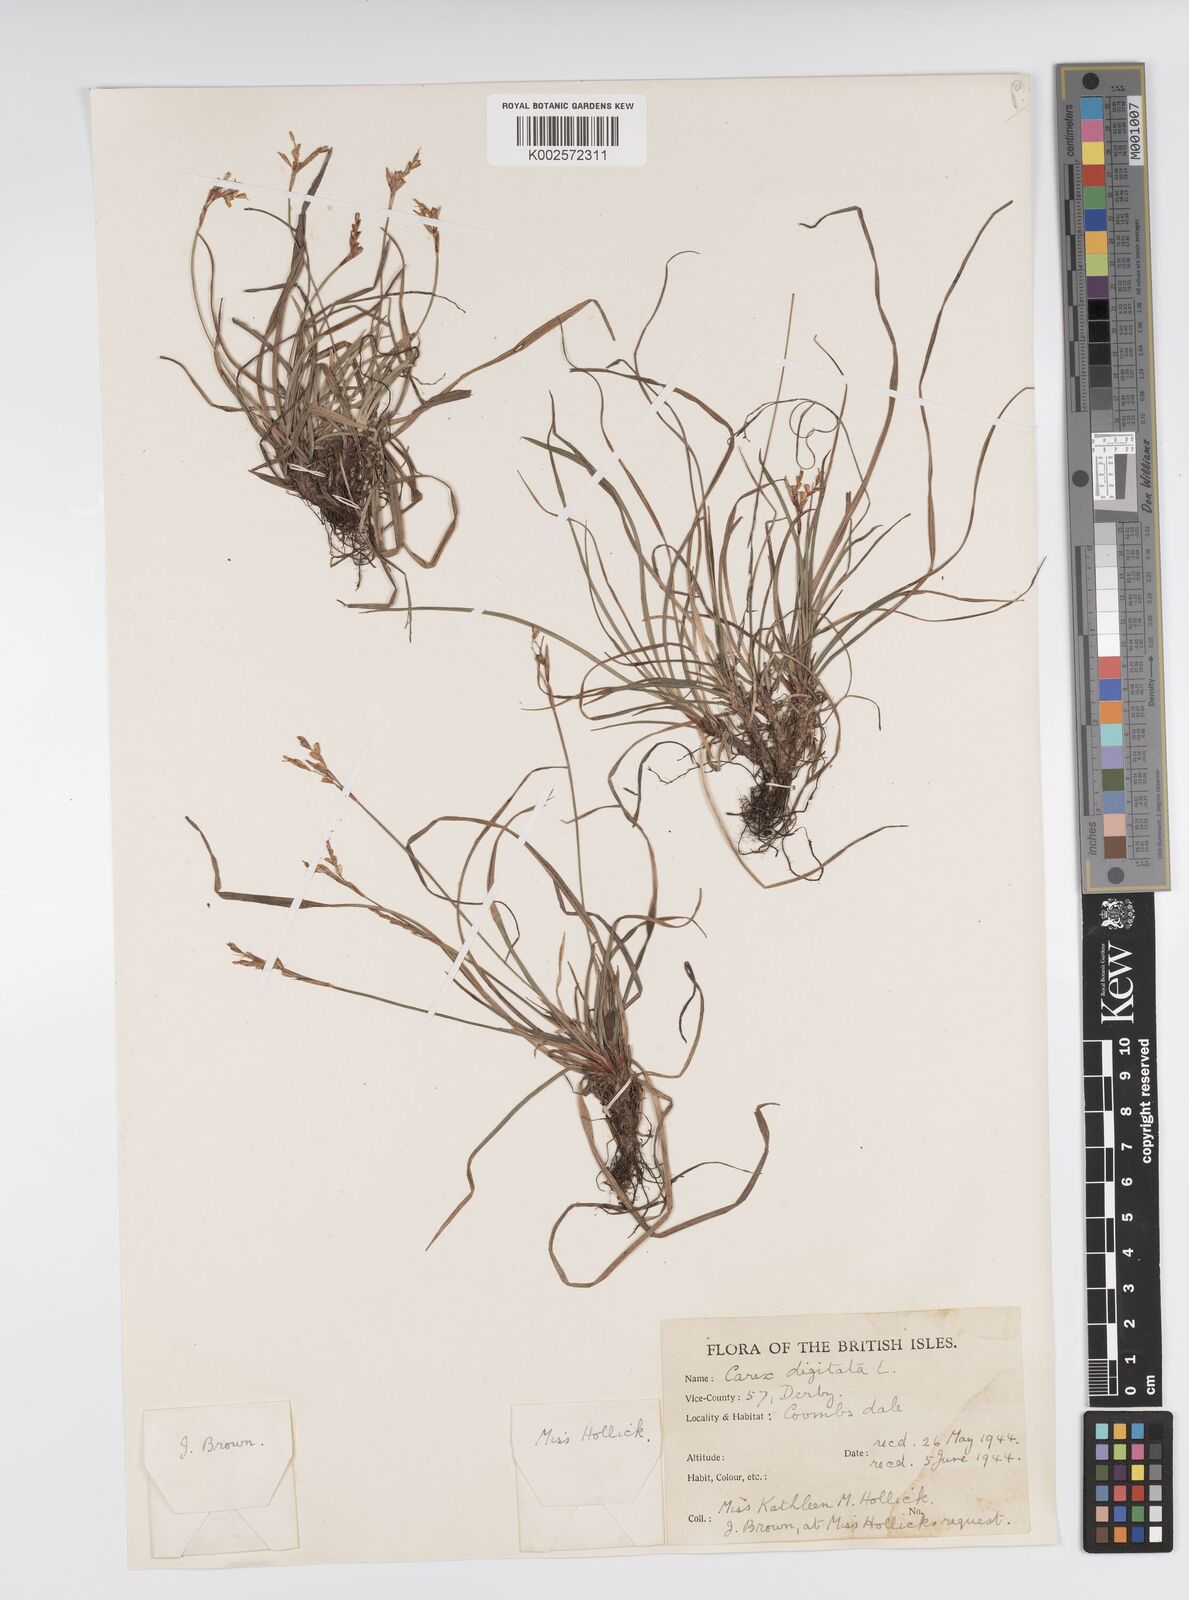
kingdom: Plantae
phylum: Tracheophyta
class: Liliopsida
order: Poales
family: Cyperaceae
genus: Carex
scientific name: Carex digitata
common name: Fingered sedge
